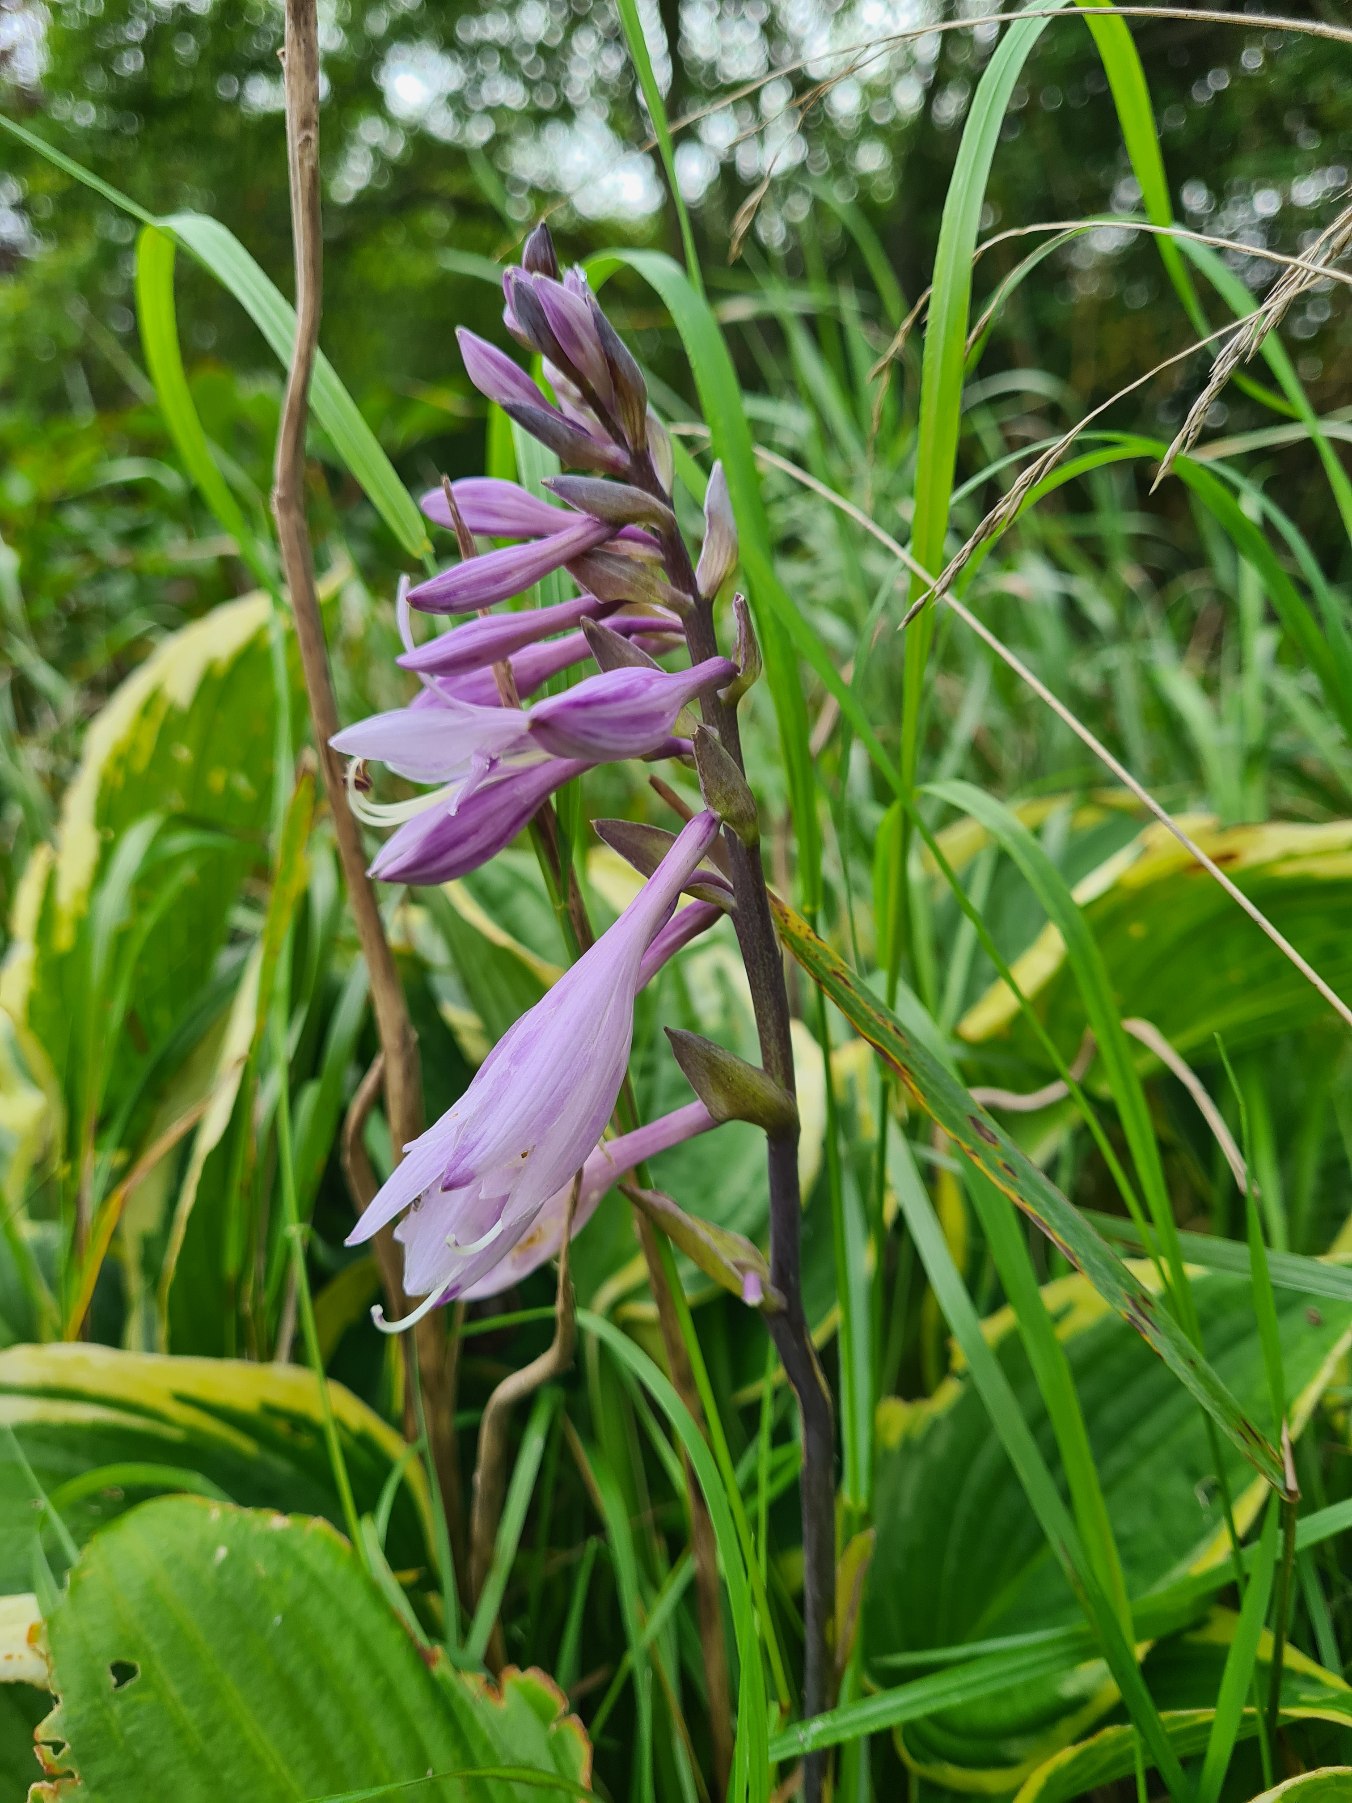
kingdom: Plantae
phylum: Tracheophyta
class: Liliopsida
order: Asparagales
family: Asparagaceae
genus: Hosta
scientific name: Hosta sieboldiana
